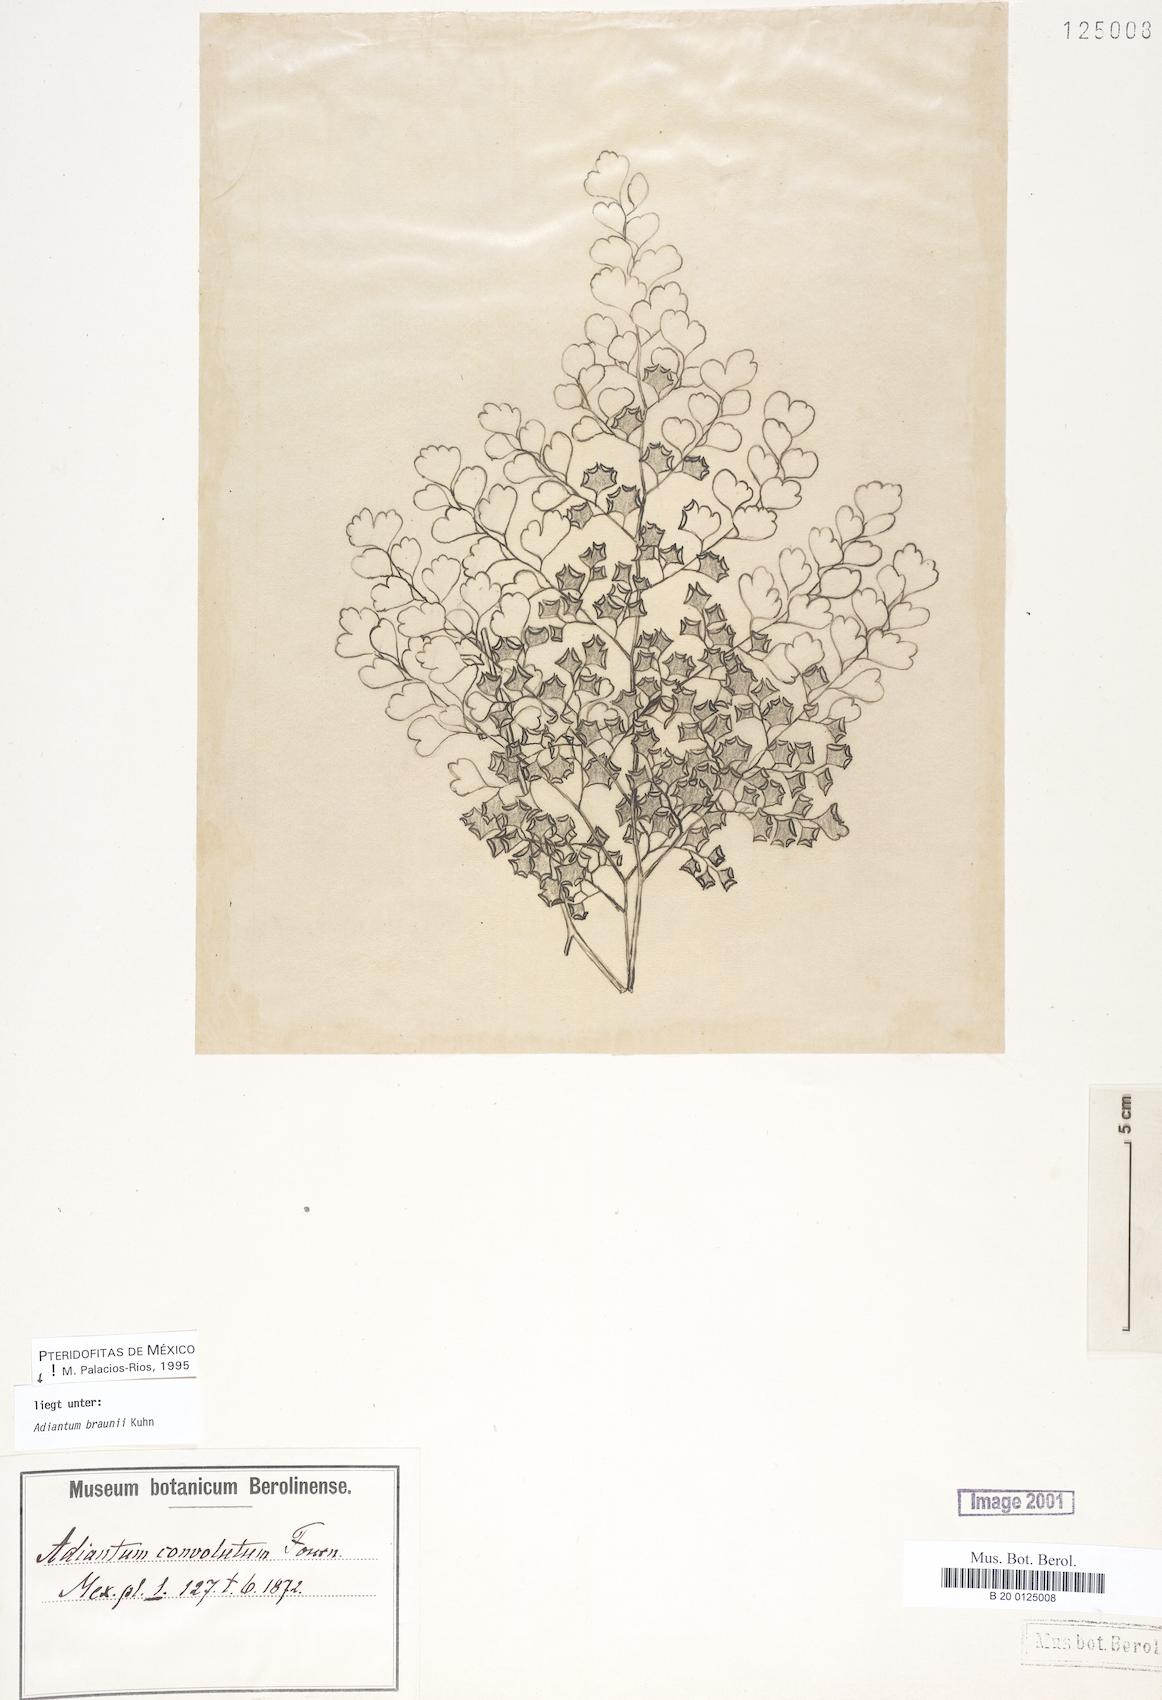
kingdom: Plantae
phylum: Tracheophyta
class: Polypodiopsida
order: Polypodiales
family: Pteridaceae
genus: Adiantum
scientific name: Adiantum braunii
